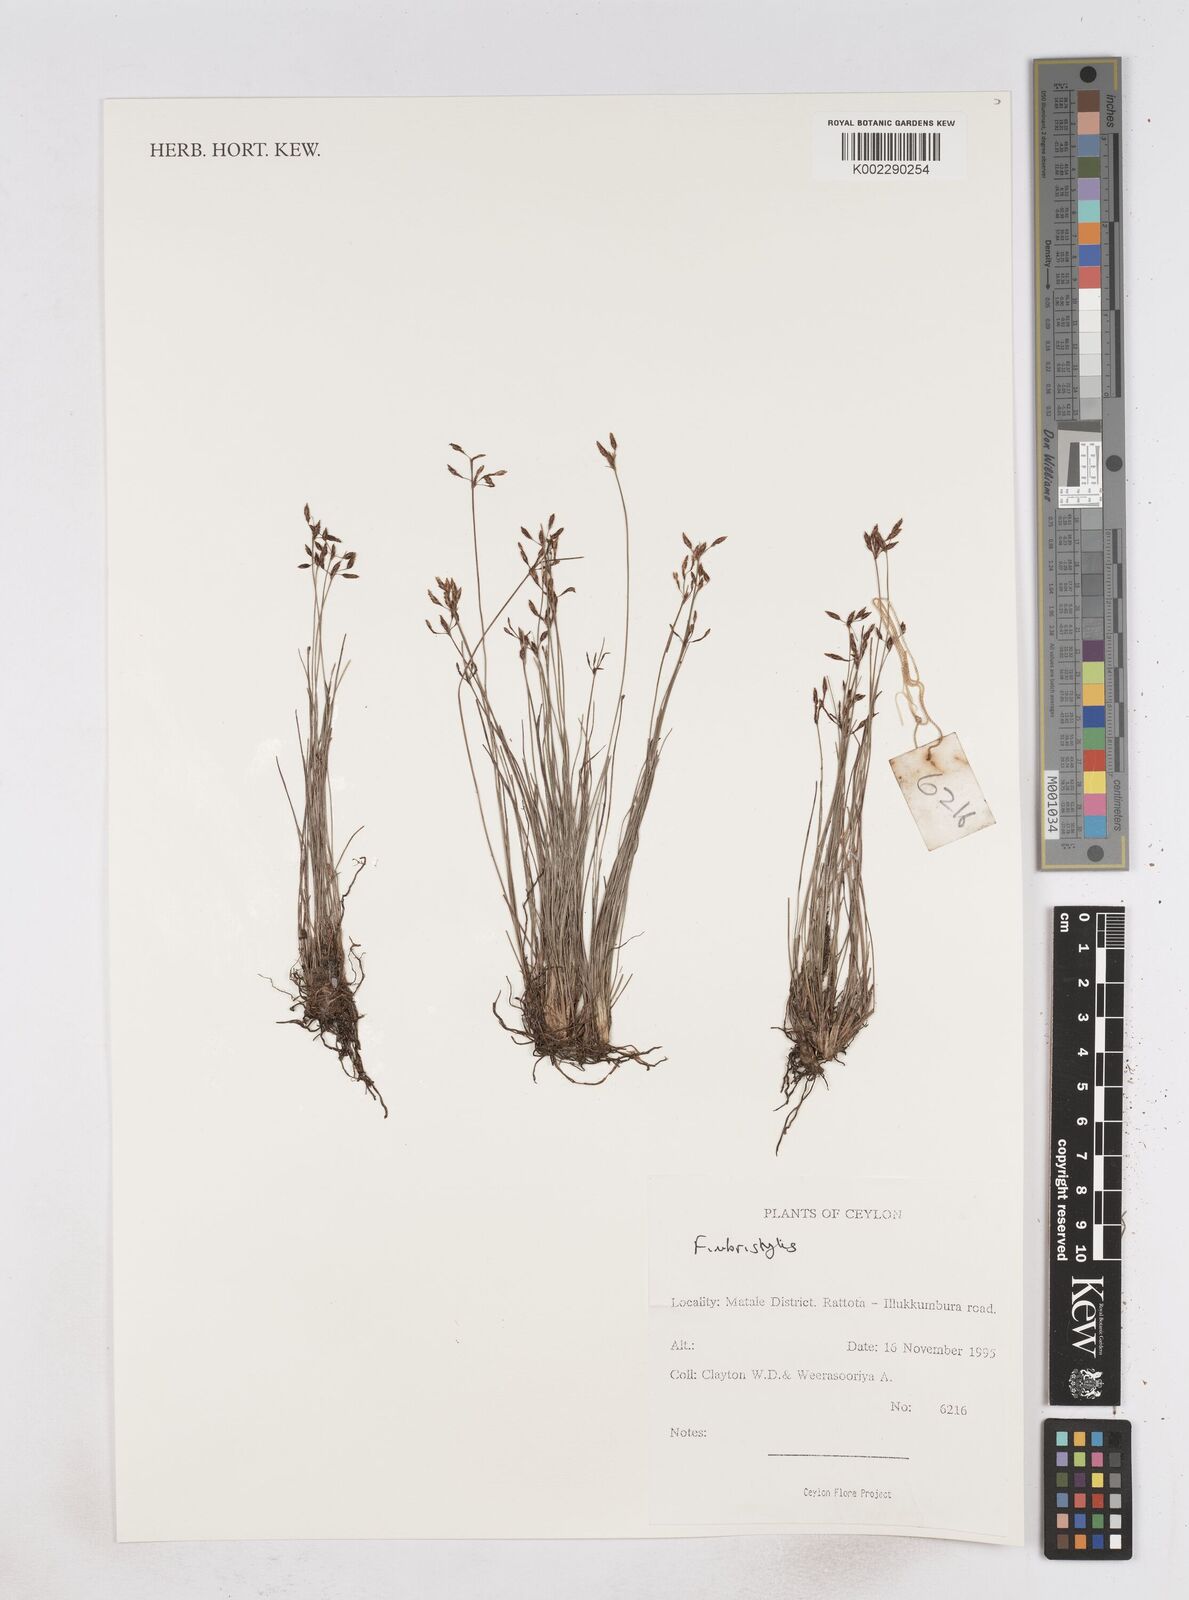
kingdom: Plantae
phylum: Tracheophyta
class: Liliopsida
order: Poales
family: Cyperaceae
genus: Fimbristylis
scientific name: Fimbristylis
